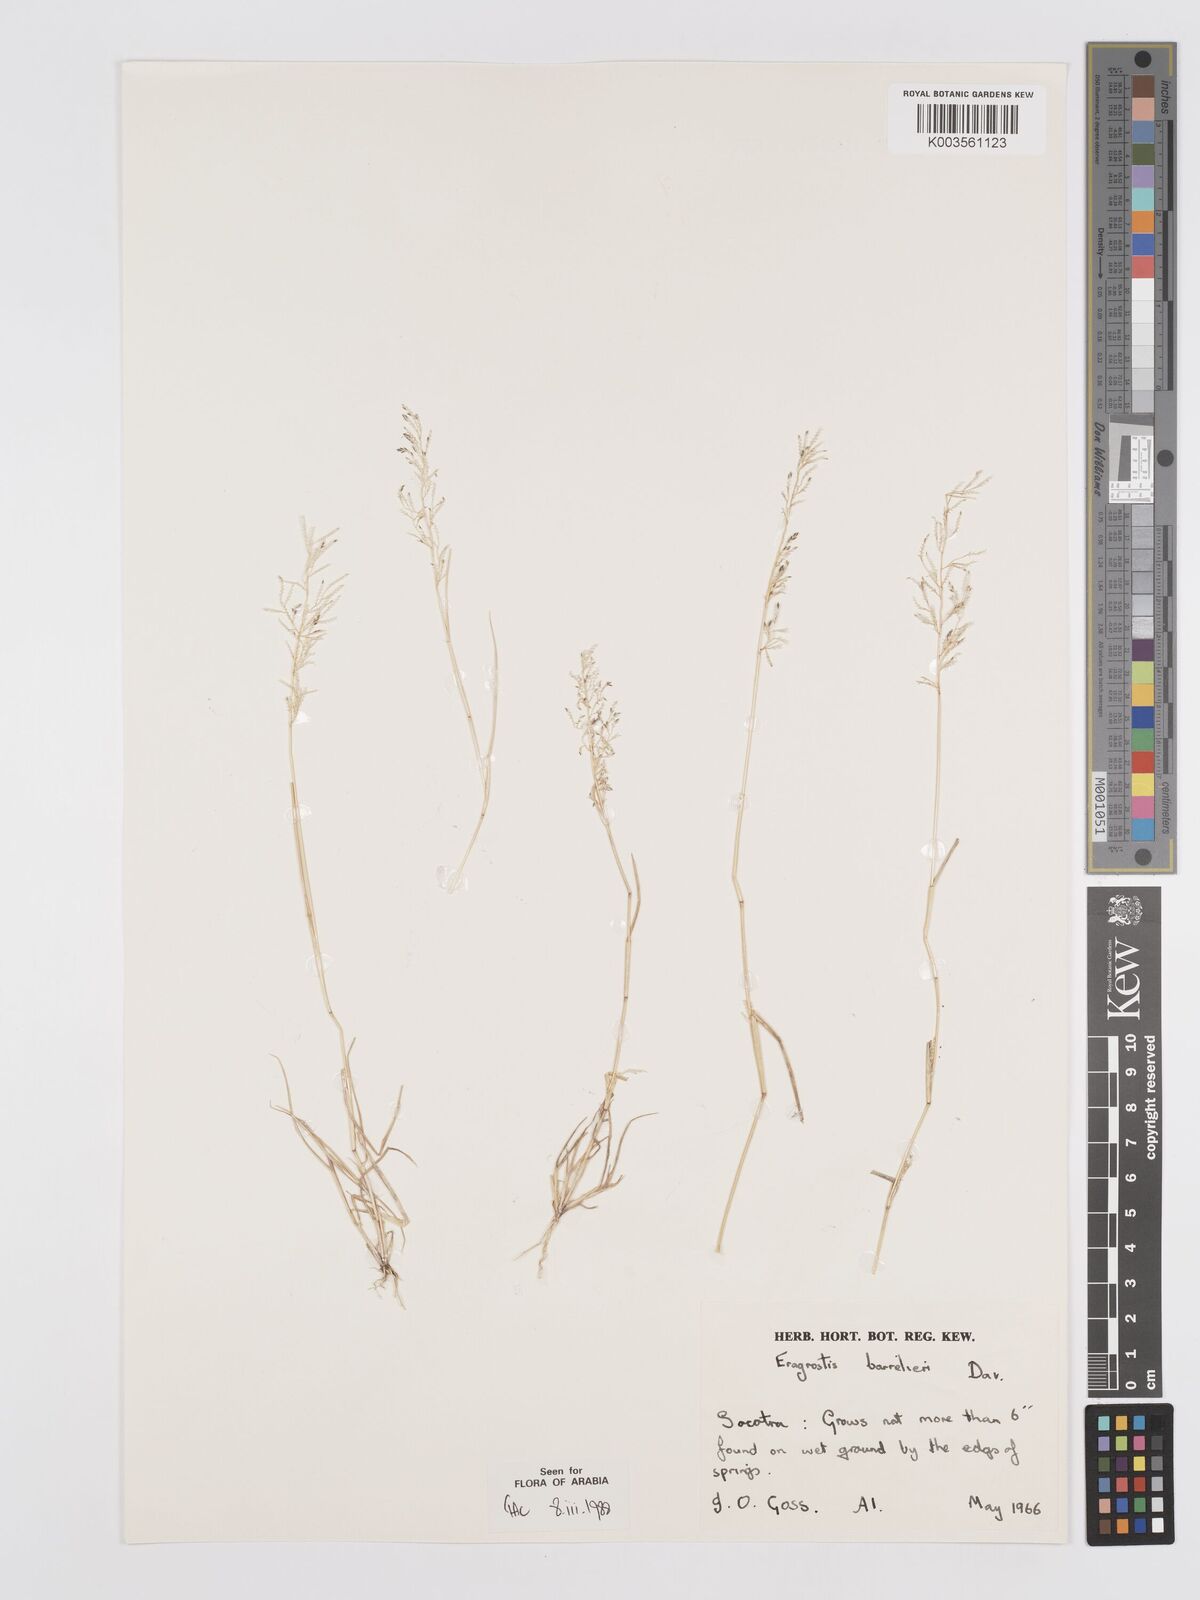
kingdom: Plantae
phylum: Tracheophyta
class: Liliopsida
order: Poales
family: Poaceae
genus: Eragrostis
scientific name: Eragrostis barrelieri
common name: Mediterranean lovegrass
